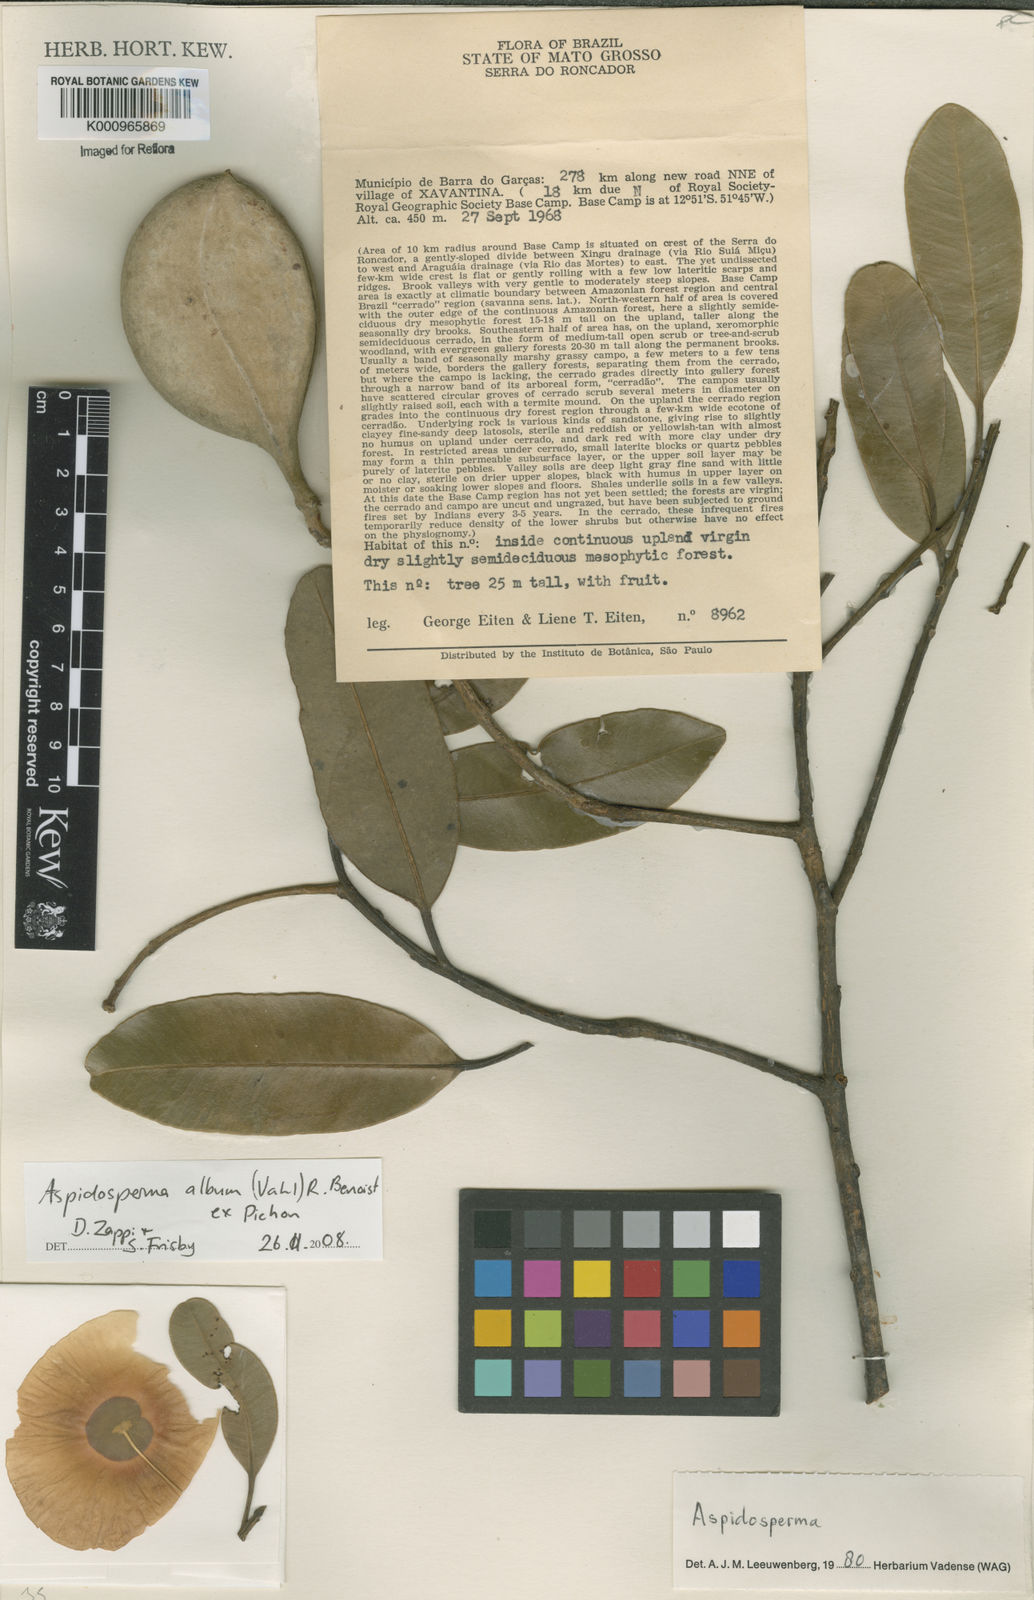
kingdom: Plantae
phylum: Tracheophyta
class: Magnoliopsida
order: Gentianales
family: Apocynaceae
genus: Aspidosperma
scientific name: Aspidosperma album
